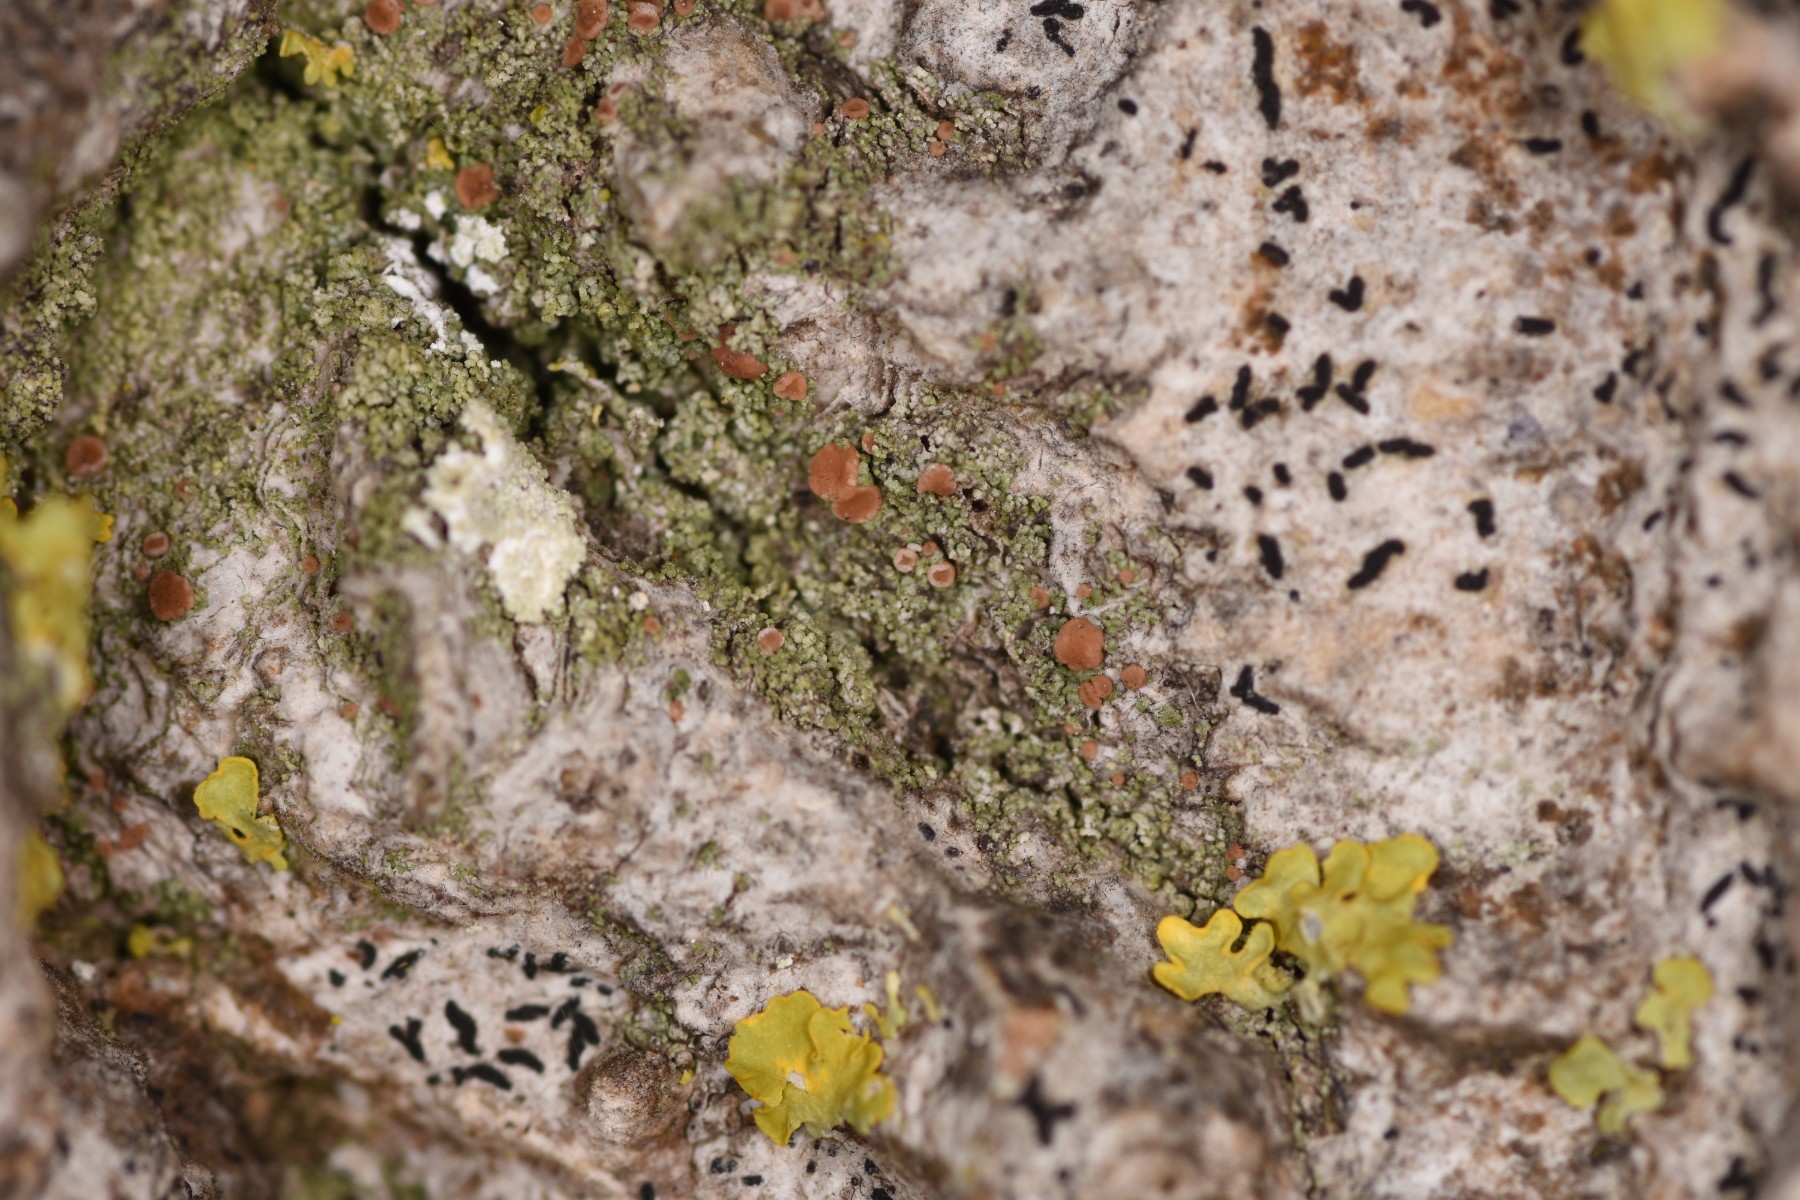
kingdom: Fungi
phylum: Ascomycota
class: Lecanoromycetes
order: Lecanorales
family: Ramalinaceae
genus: Bacidia
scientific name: Bacidia rubella
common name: rødbrun tensporelav
